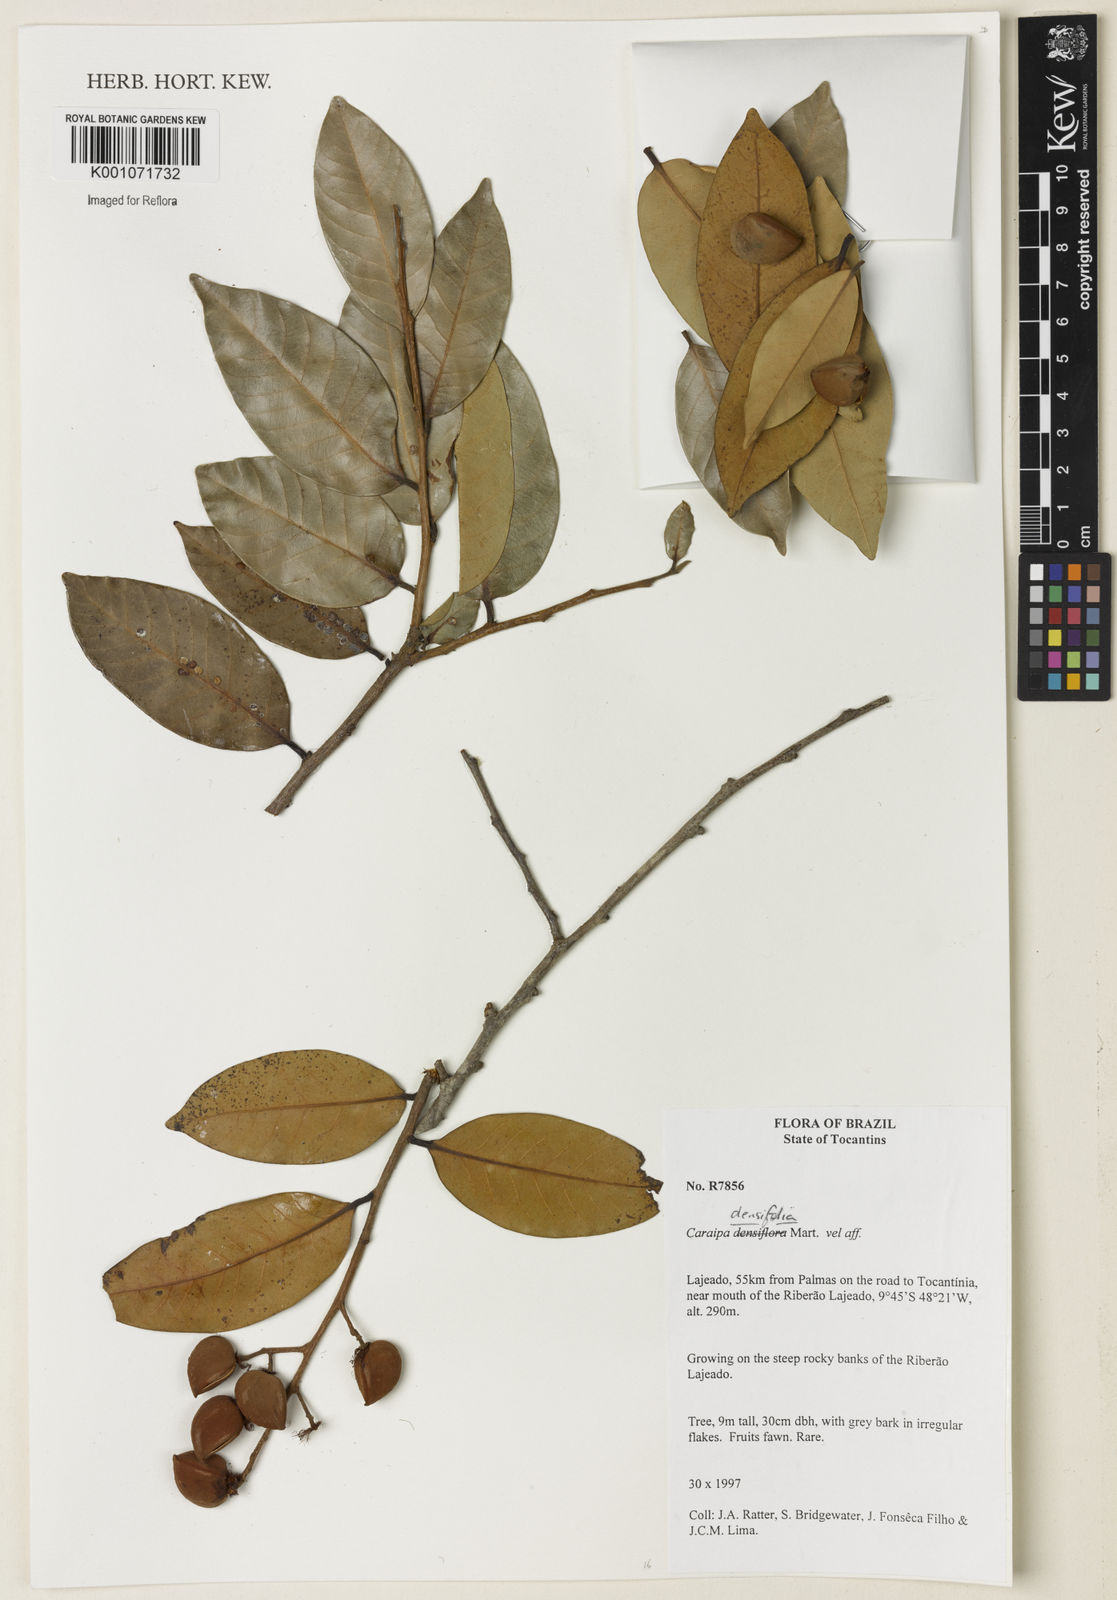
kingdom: Plantae
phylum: Tracheophyta
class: Magnoliopsida
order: Malpighiales
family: Calophyllaceae
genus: Caraipa
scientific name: Caraipa densifolia
